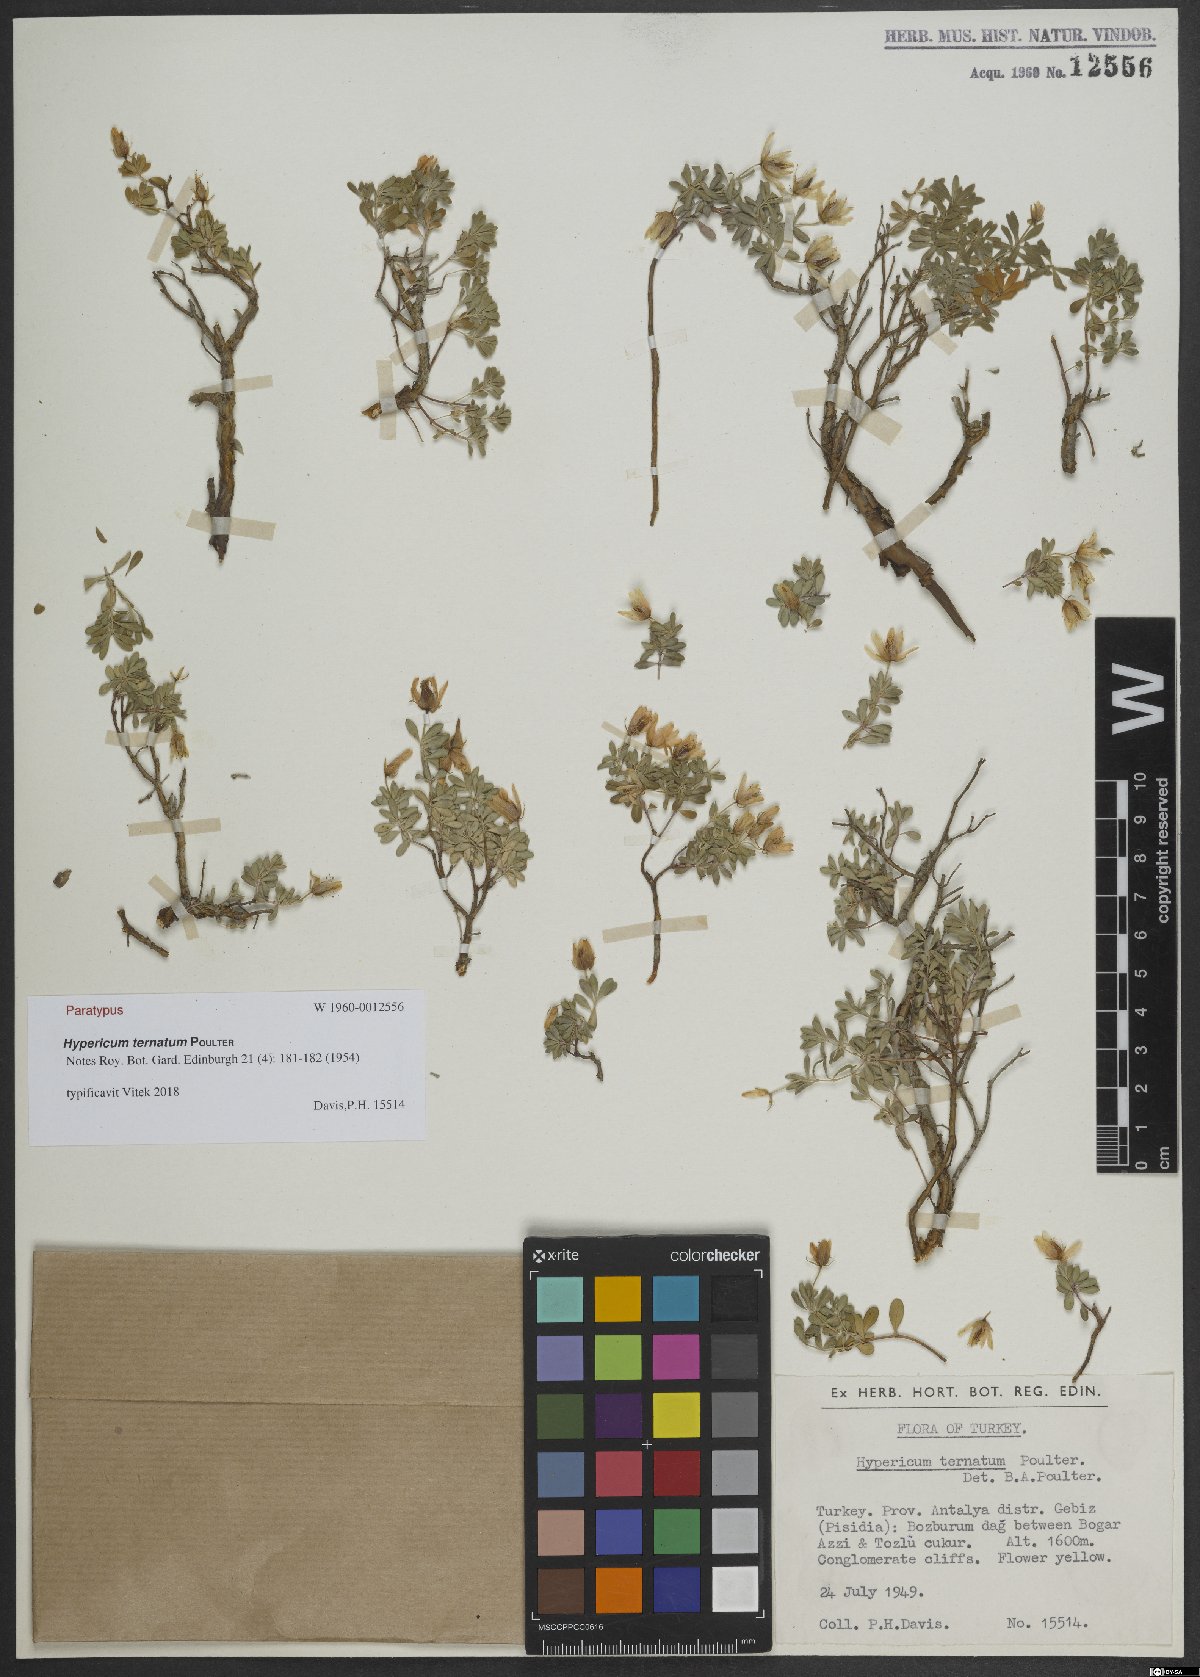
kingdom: Plantae
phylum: Tracheophyta
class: Magnoliopsida
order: Malpighiales
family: Hypericaceae
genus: Hypericum
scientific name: Hypericum ternatum
